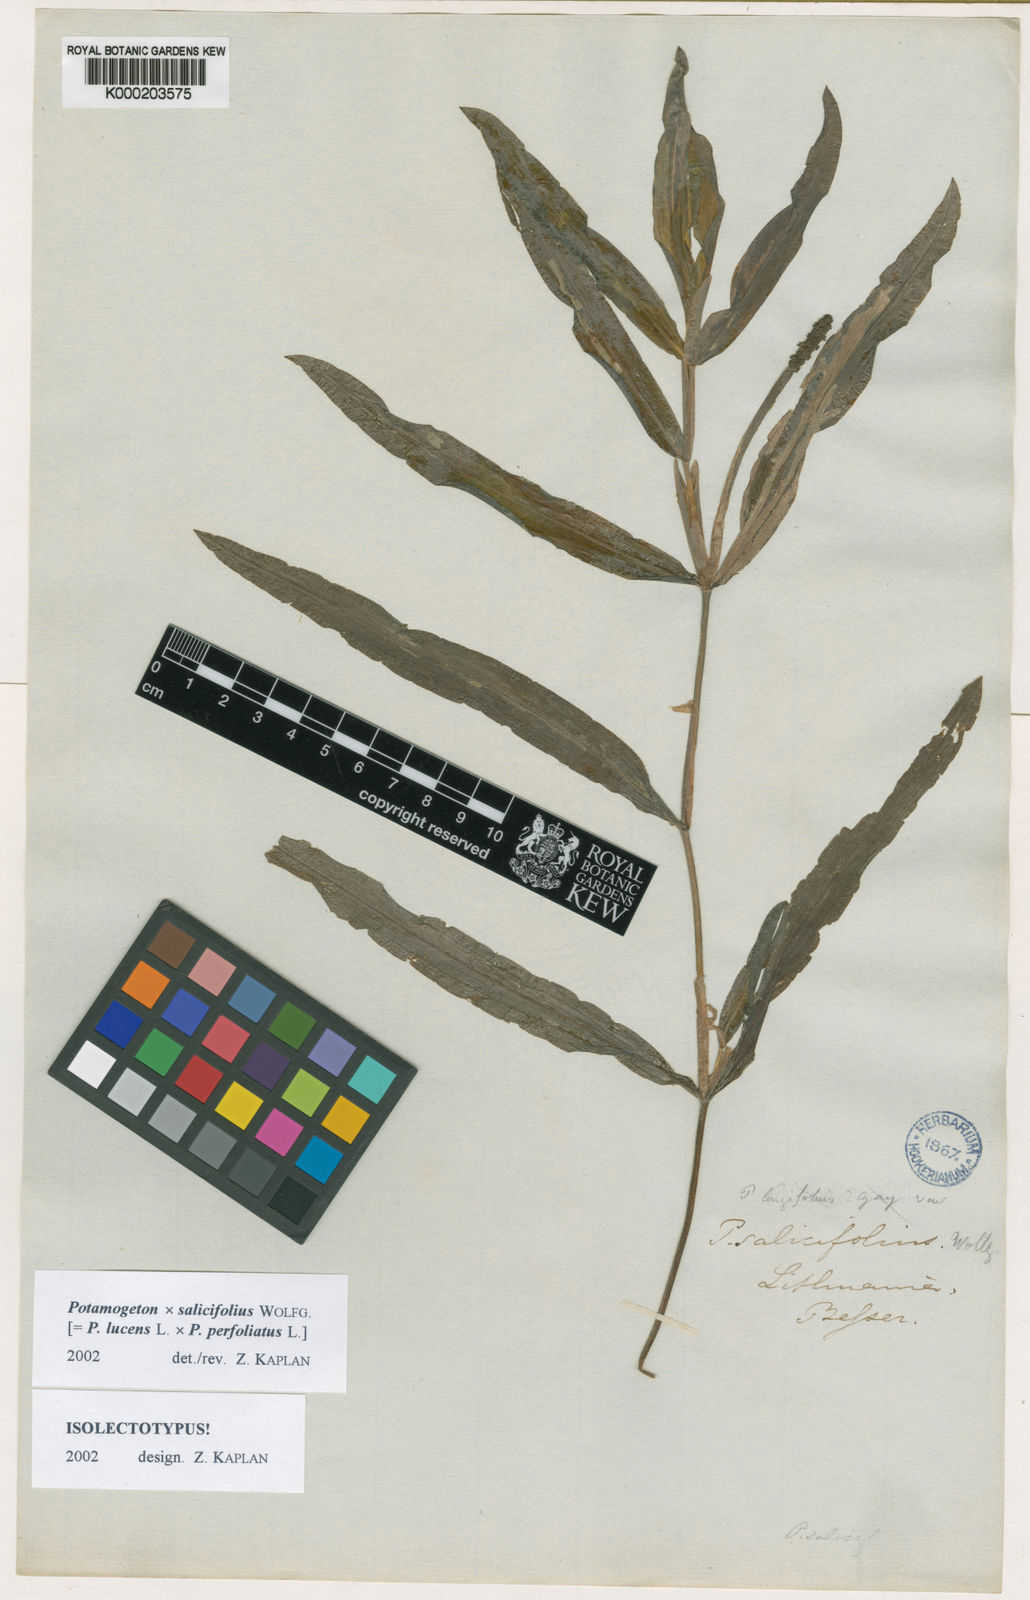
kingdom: Plantae
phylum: Tracheophyta
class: Liliopsida
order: Alismatales
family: Potamogetonaceae
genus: Potamogeton
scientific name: Potamogeton lucens
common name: Shining pondweed
